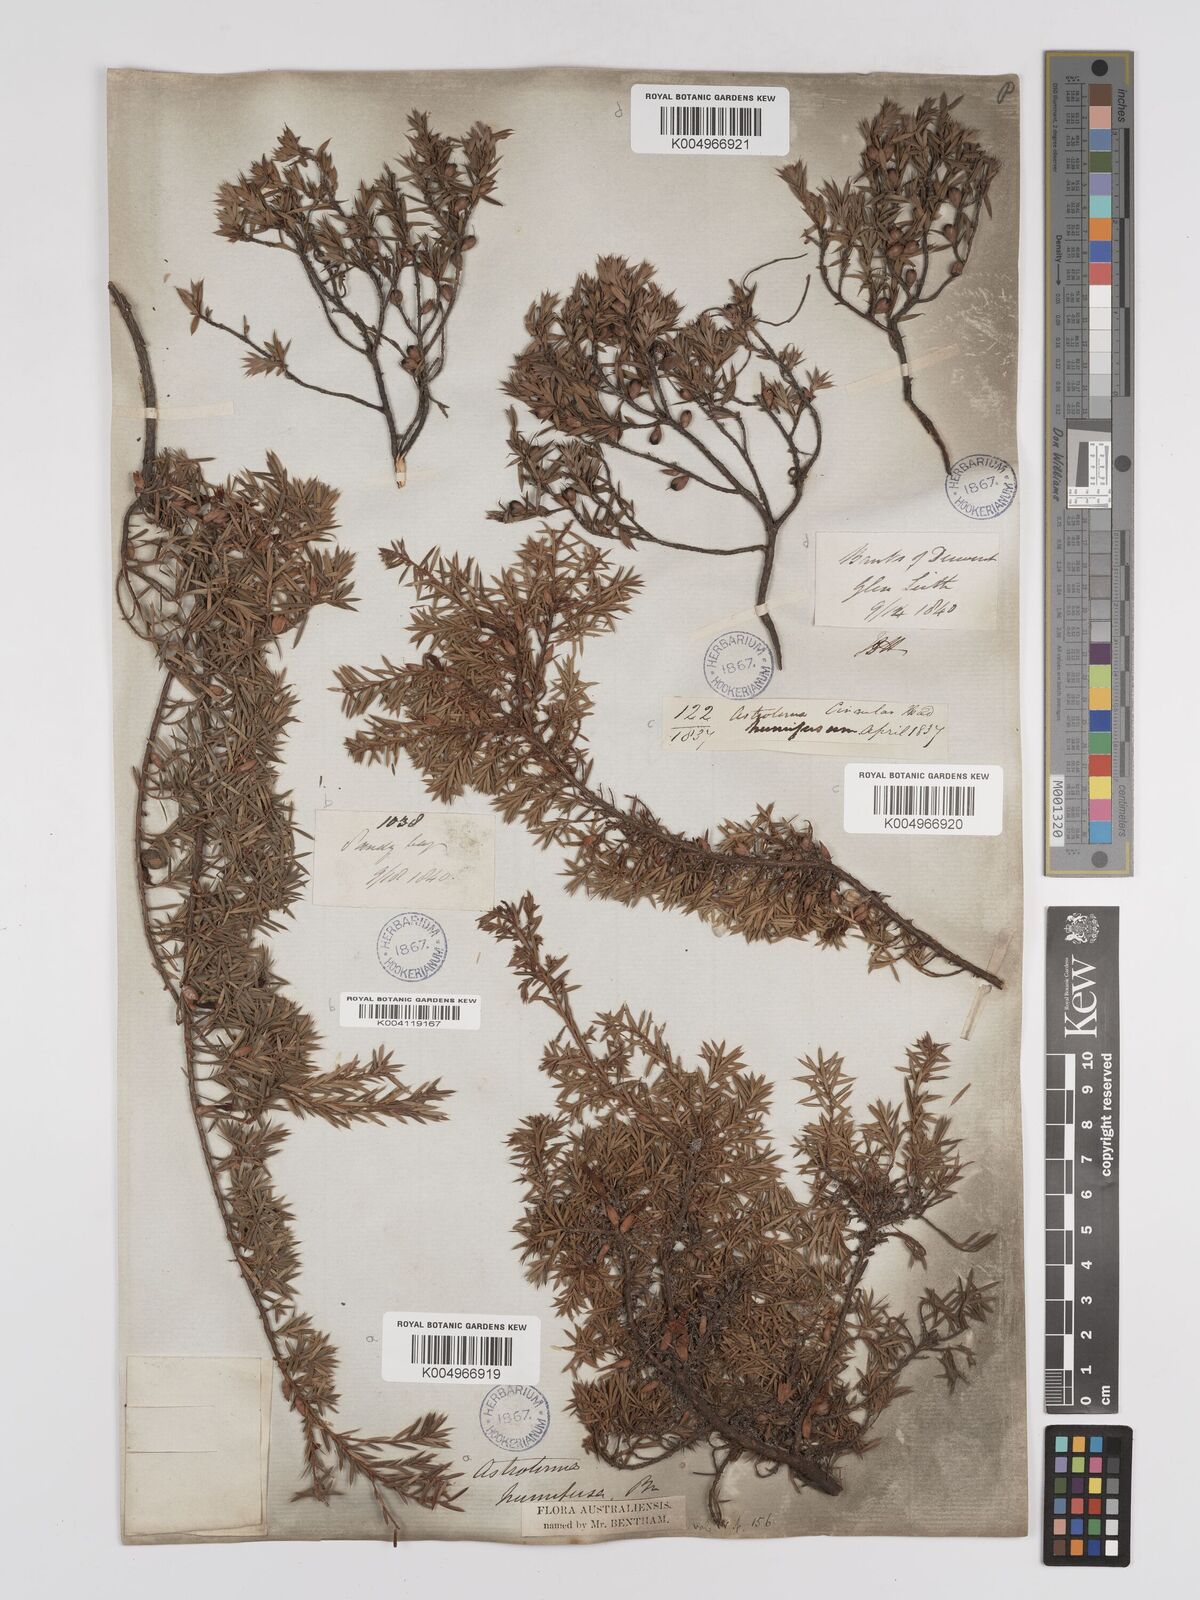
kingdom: Plantae
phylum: Tracheophyta
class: Magnoliopsida
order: Ericales
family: Ericaceae
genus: Styphelia
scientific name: Styphelia humifusa
